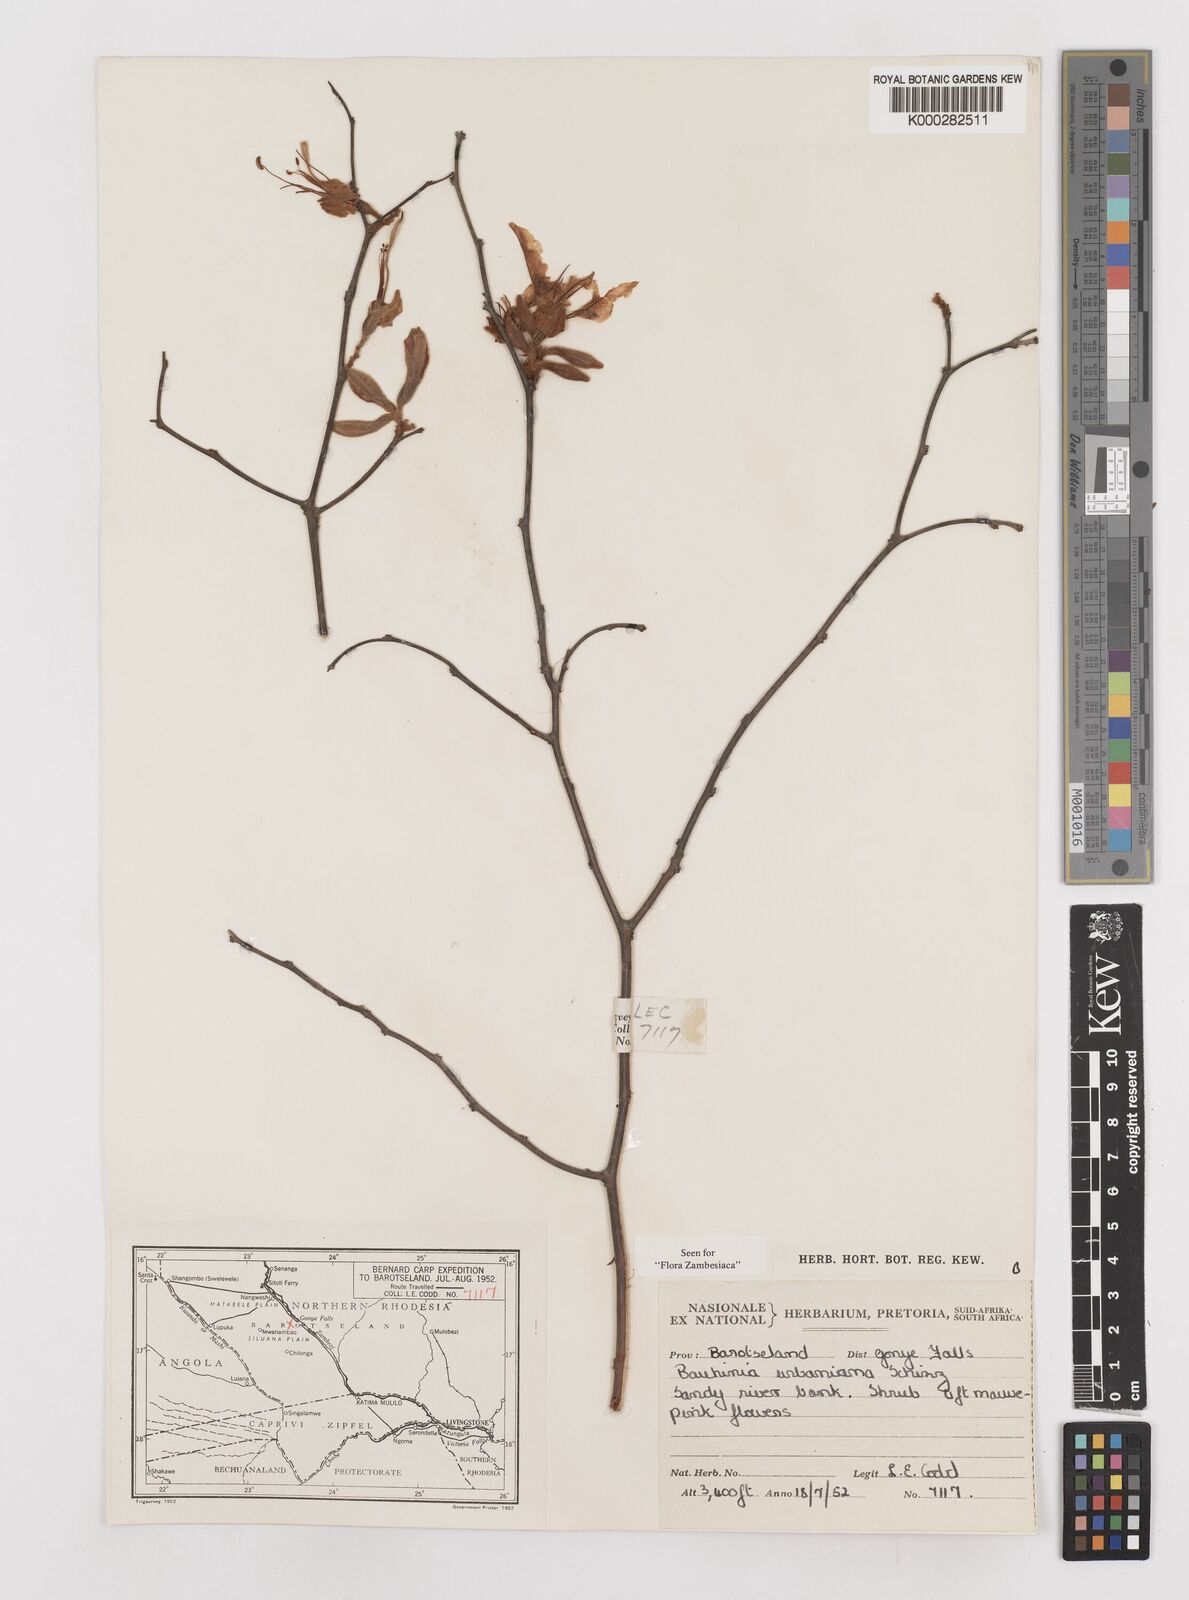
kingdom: Plantae
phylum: Tracheophyta
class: Magnoliopsida
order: Fabales
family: Fabaceae
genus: Bauhinia
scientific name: Bauhinia urbaniana
